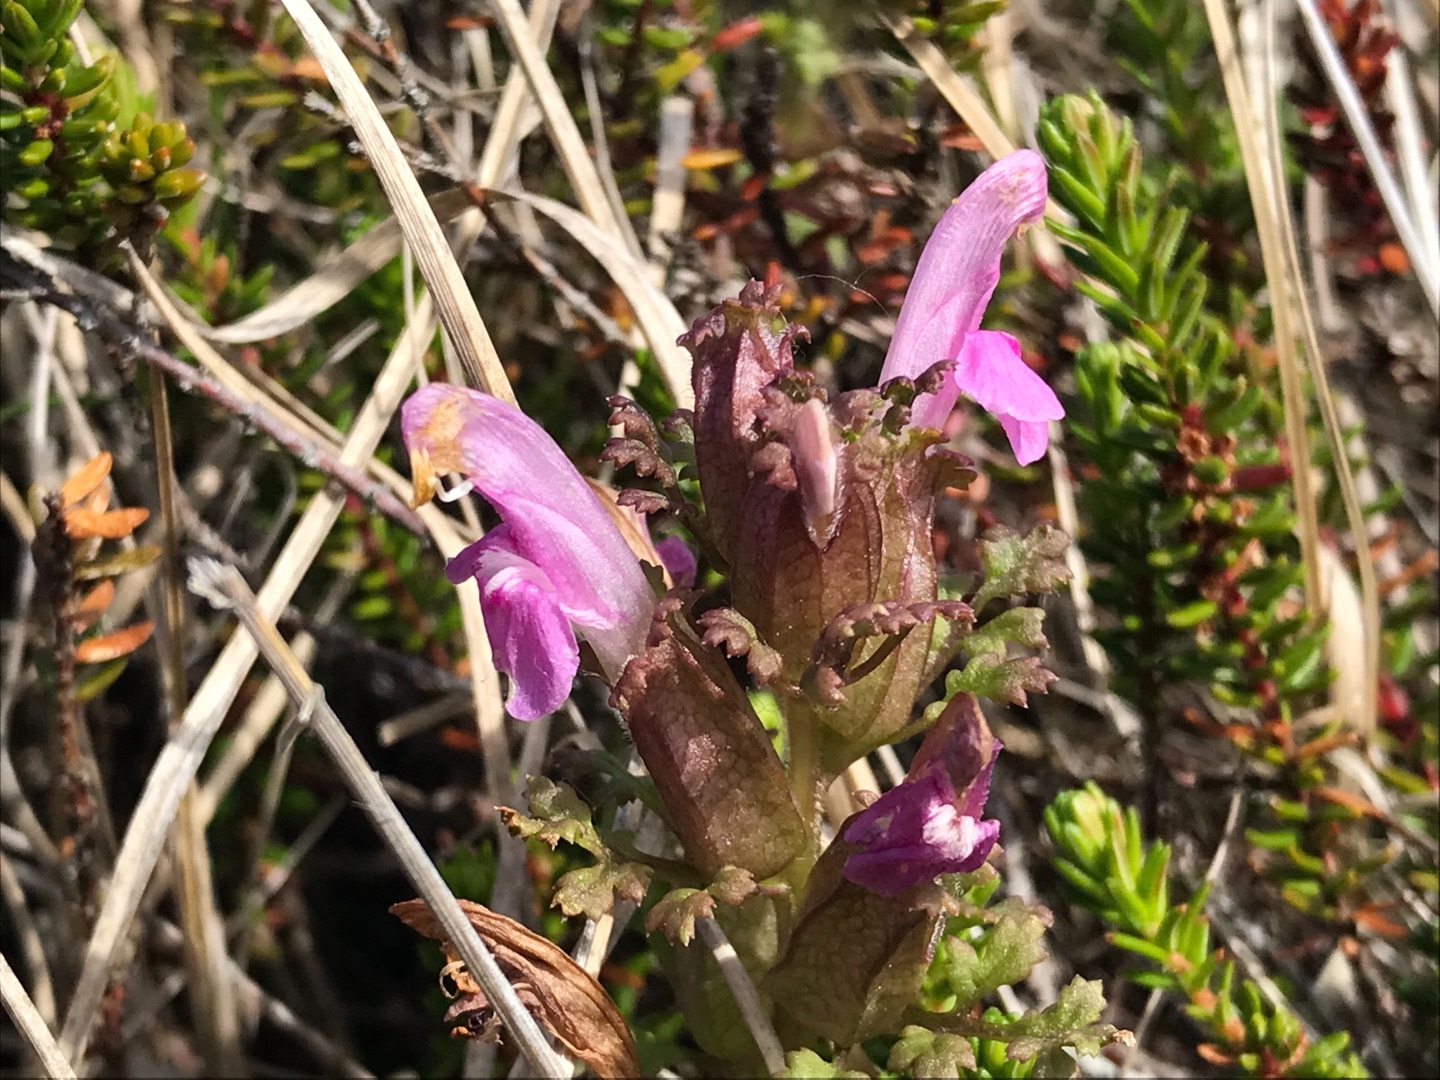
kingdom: Plantae
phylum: Tracheophyta
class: Magnoliopsida
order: Lamiales
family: Orobanchaceae
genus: Pedicularis
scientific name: Pedicularis sylvatica
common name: Mose-troldurt
